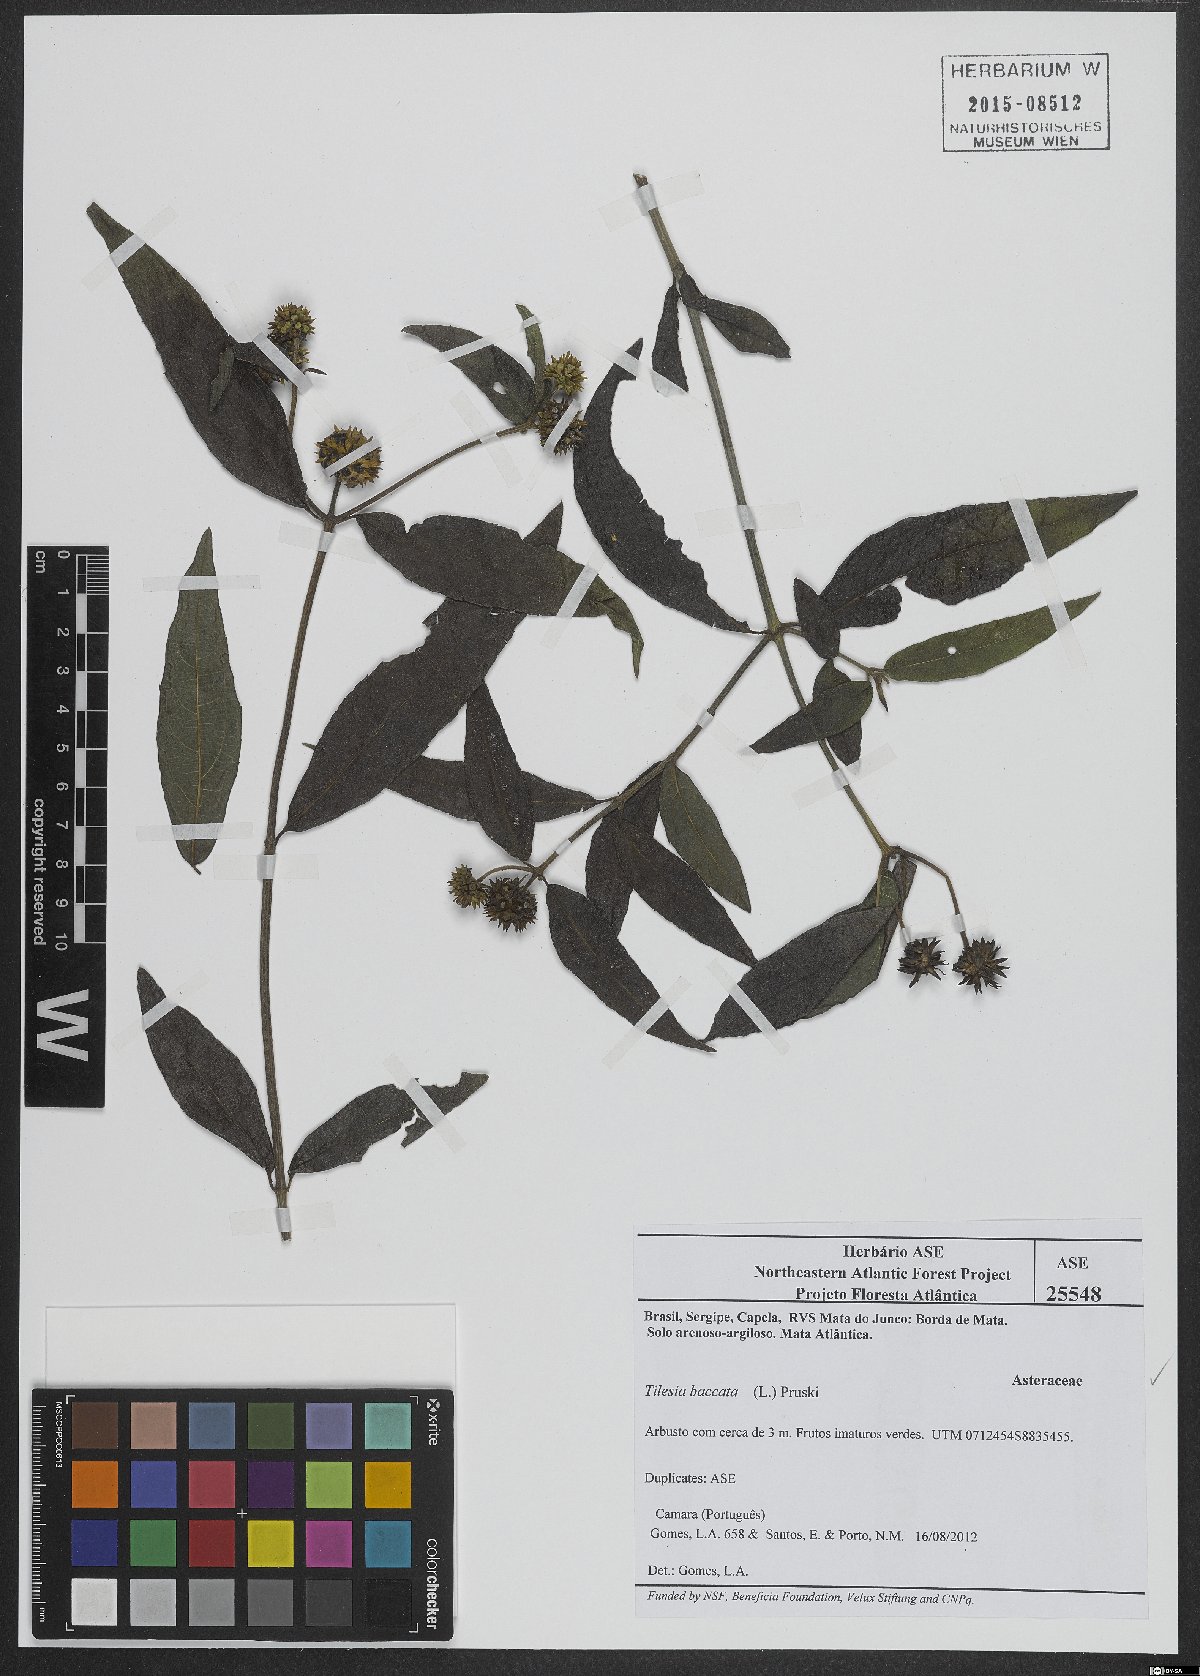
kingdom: Plantae
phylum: Tracheophyta
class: Magnoliopsida
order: Asterales
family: Asteraceae
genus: Tilesia
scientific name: Tilesia baccata
